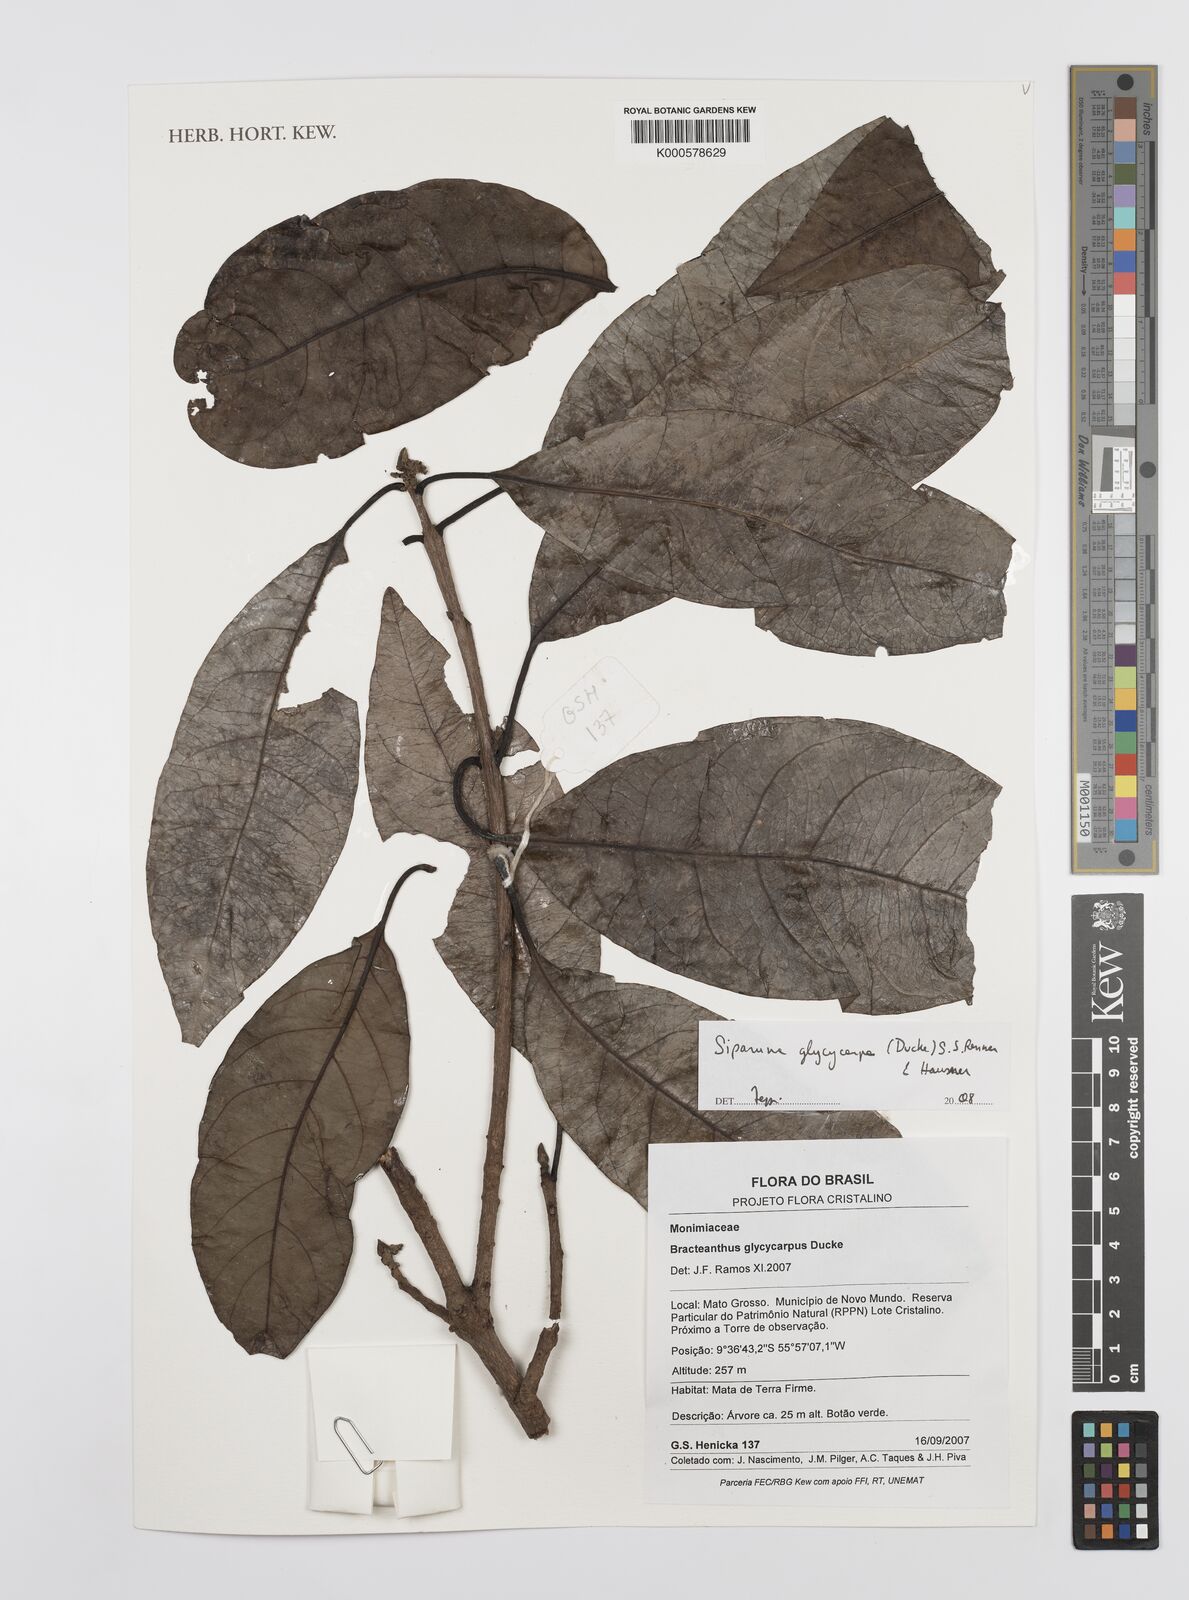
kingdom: Plantae
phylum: Tracheophyta
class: Magnoliopsida
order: Laurales
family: Siparunaceae
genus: Siparuna
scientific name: Siparuna glycycarpa
